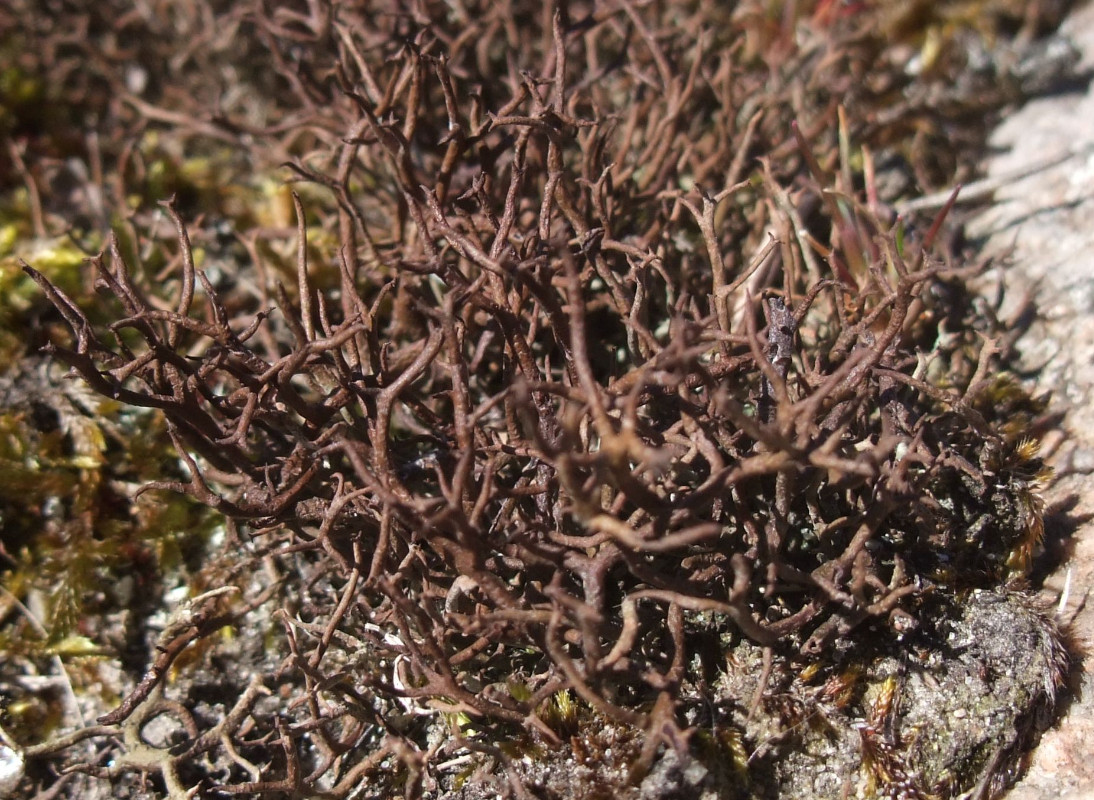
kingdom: Fungi
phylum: Ascomycota
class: Lecanoromycetes
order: Lecanorales
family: Cladoniaceae
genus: Cladonia
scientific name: Cladonia furcata
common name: kløftet bægerlav
